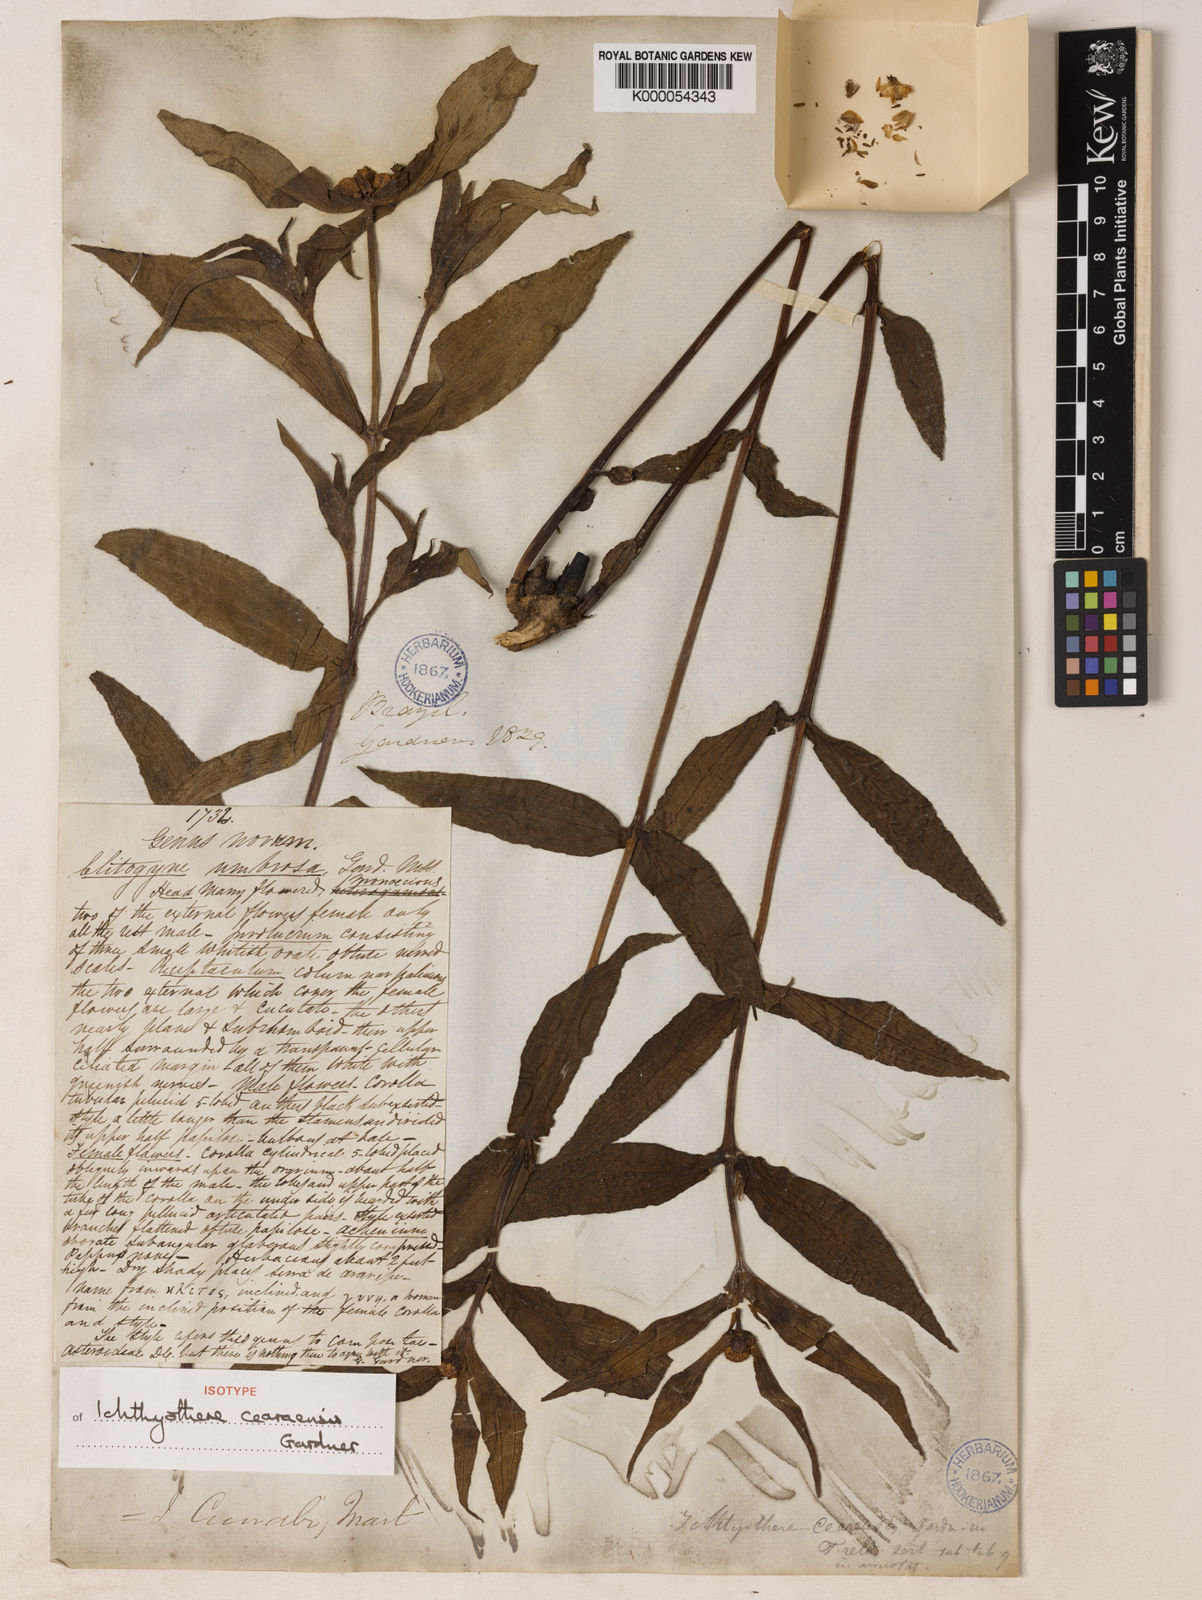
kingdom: Plantae
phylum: Tracheophyta
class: Magnoliopsida
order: Asterales
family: Asteraceae
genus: Ichthyothere
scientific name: Ichthyothere terminalis
